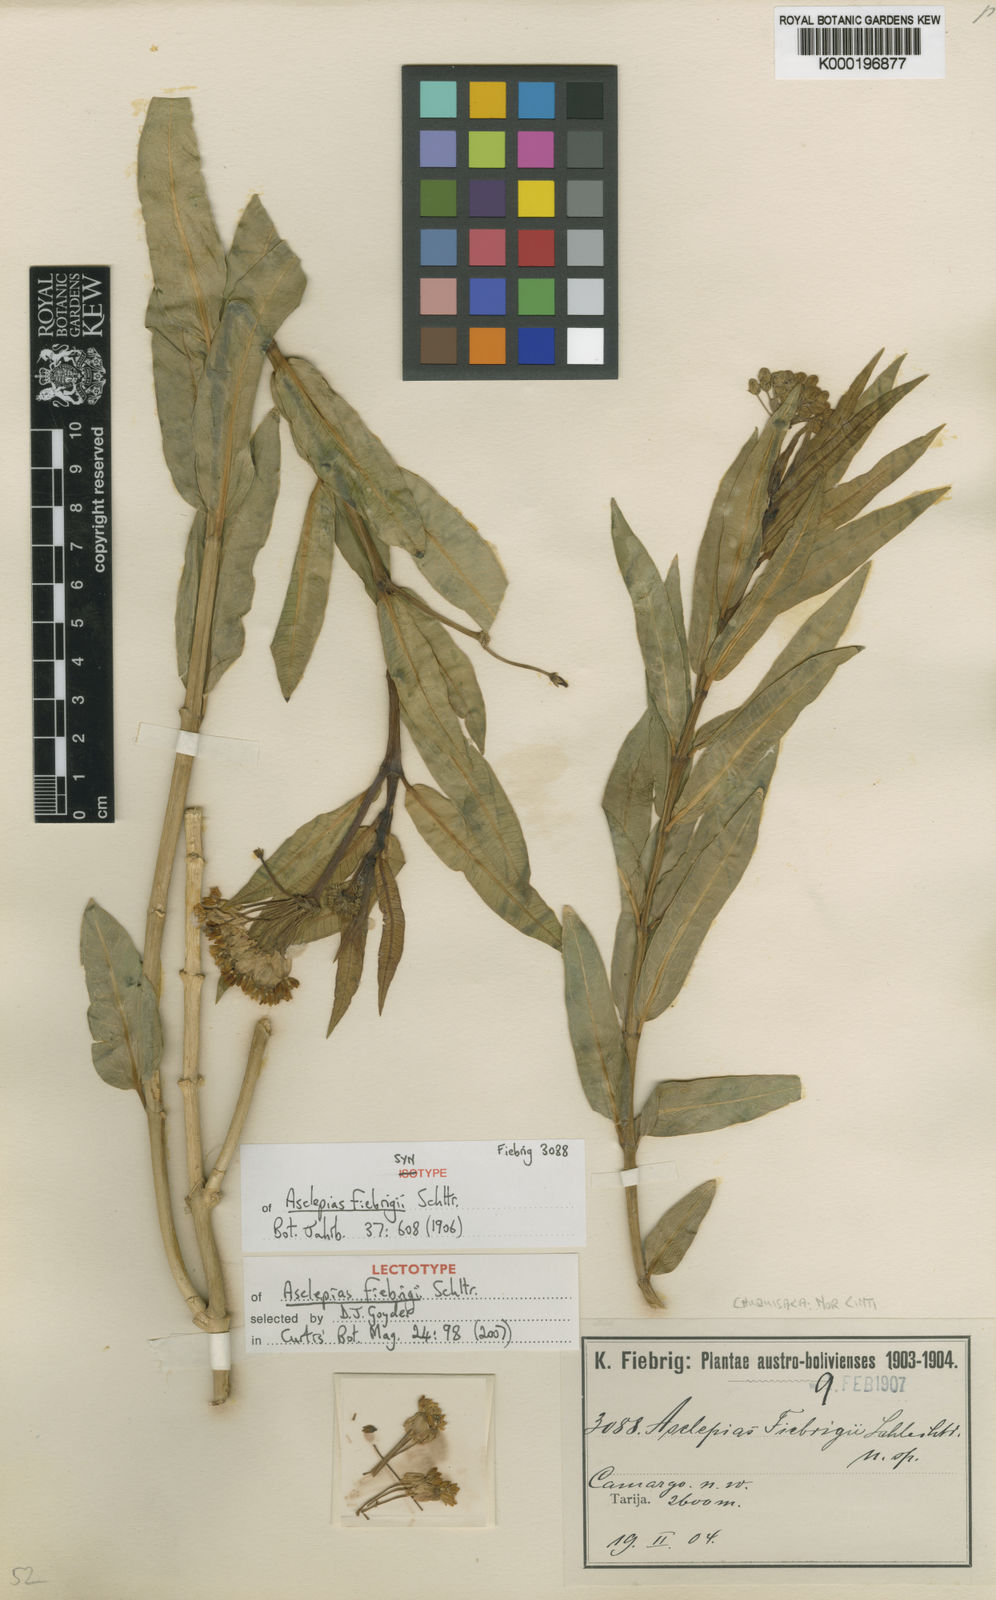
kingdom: Plantae
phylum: Tracheophyta
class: Magnoliopsida
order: Gentianales
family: Apocynaceae
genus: Asclepias
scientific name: Asclepias barjoniifolia
